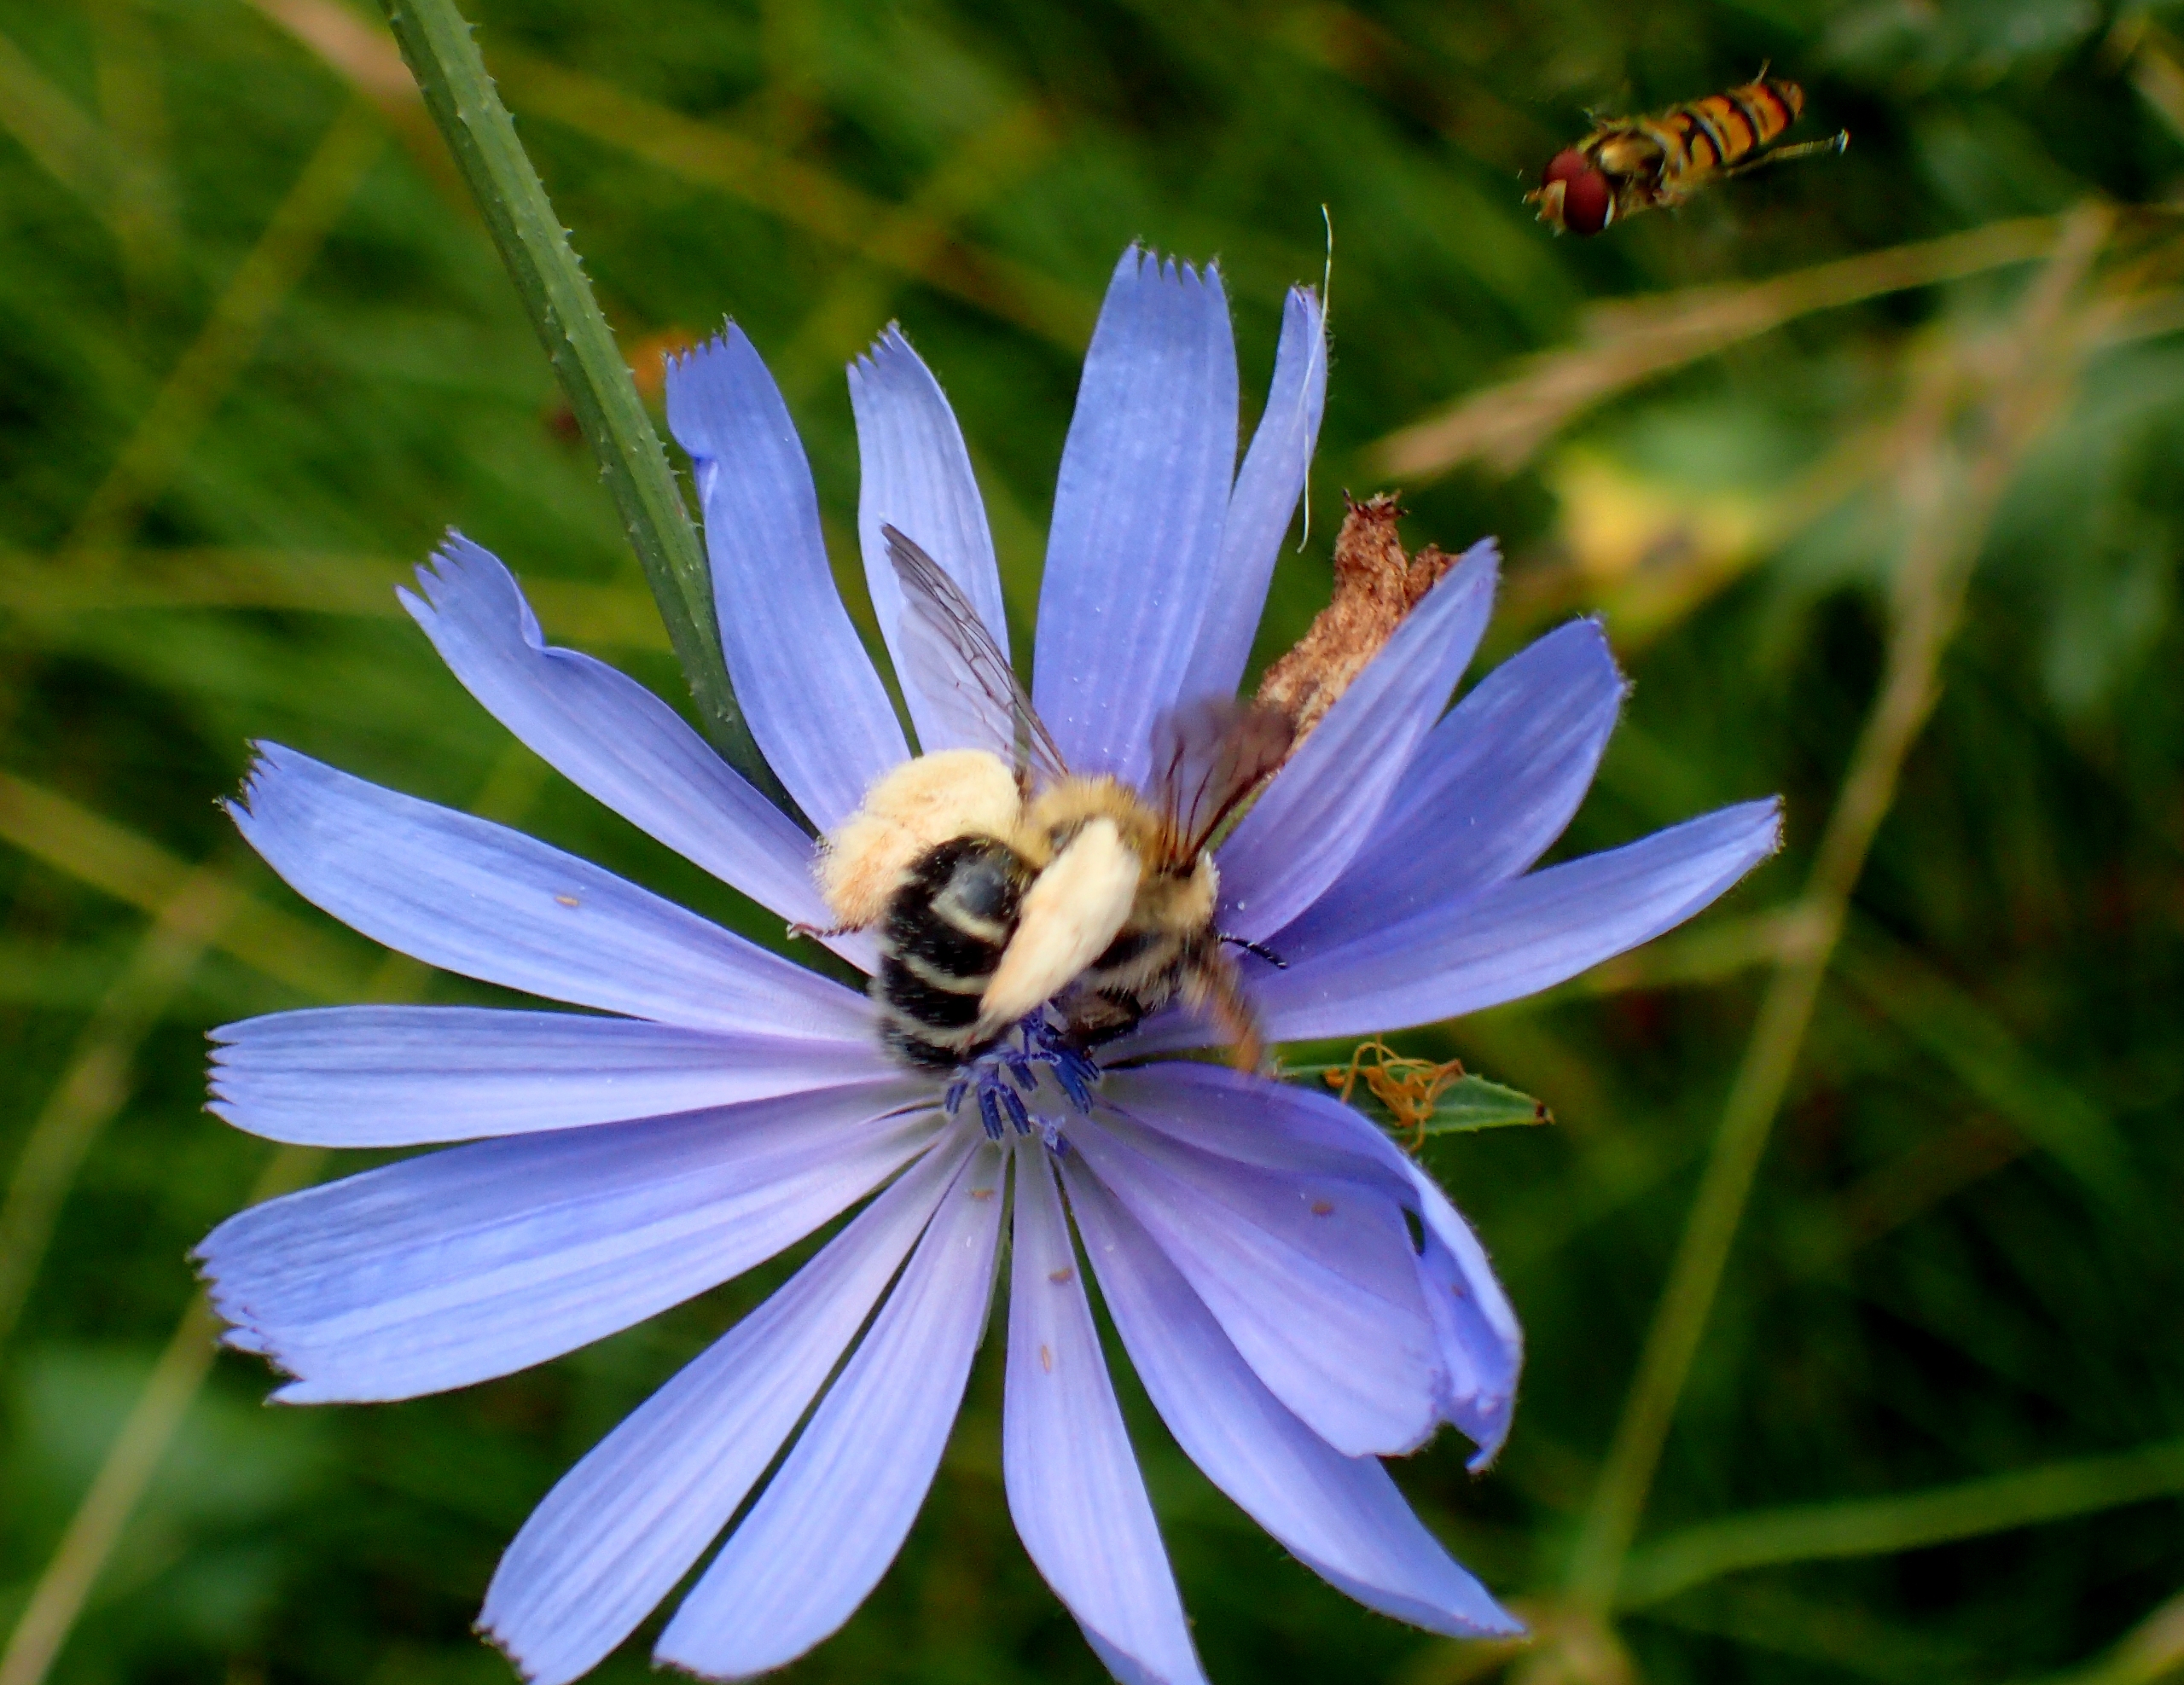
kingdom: Animalia
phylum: Arthropoda
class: Insecta
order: Hymenoptera
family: Melittidae
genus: Dasypoda
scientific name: Dasypoda hirtipes
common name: Pragtbuksebi
